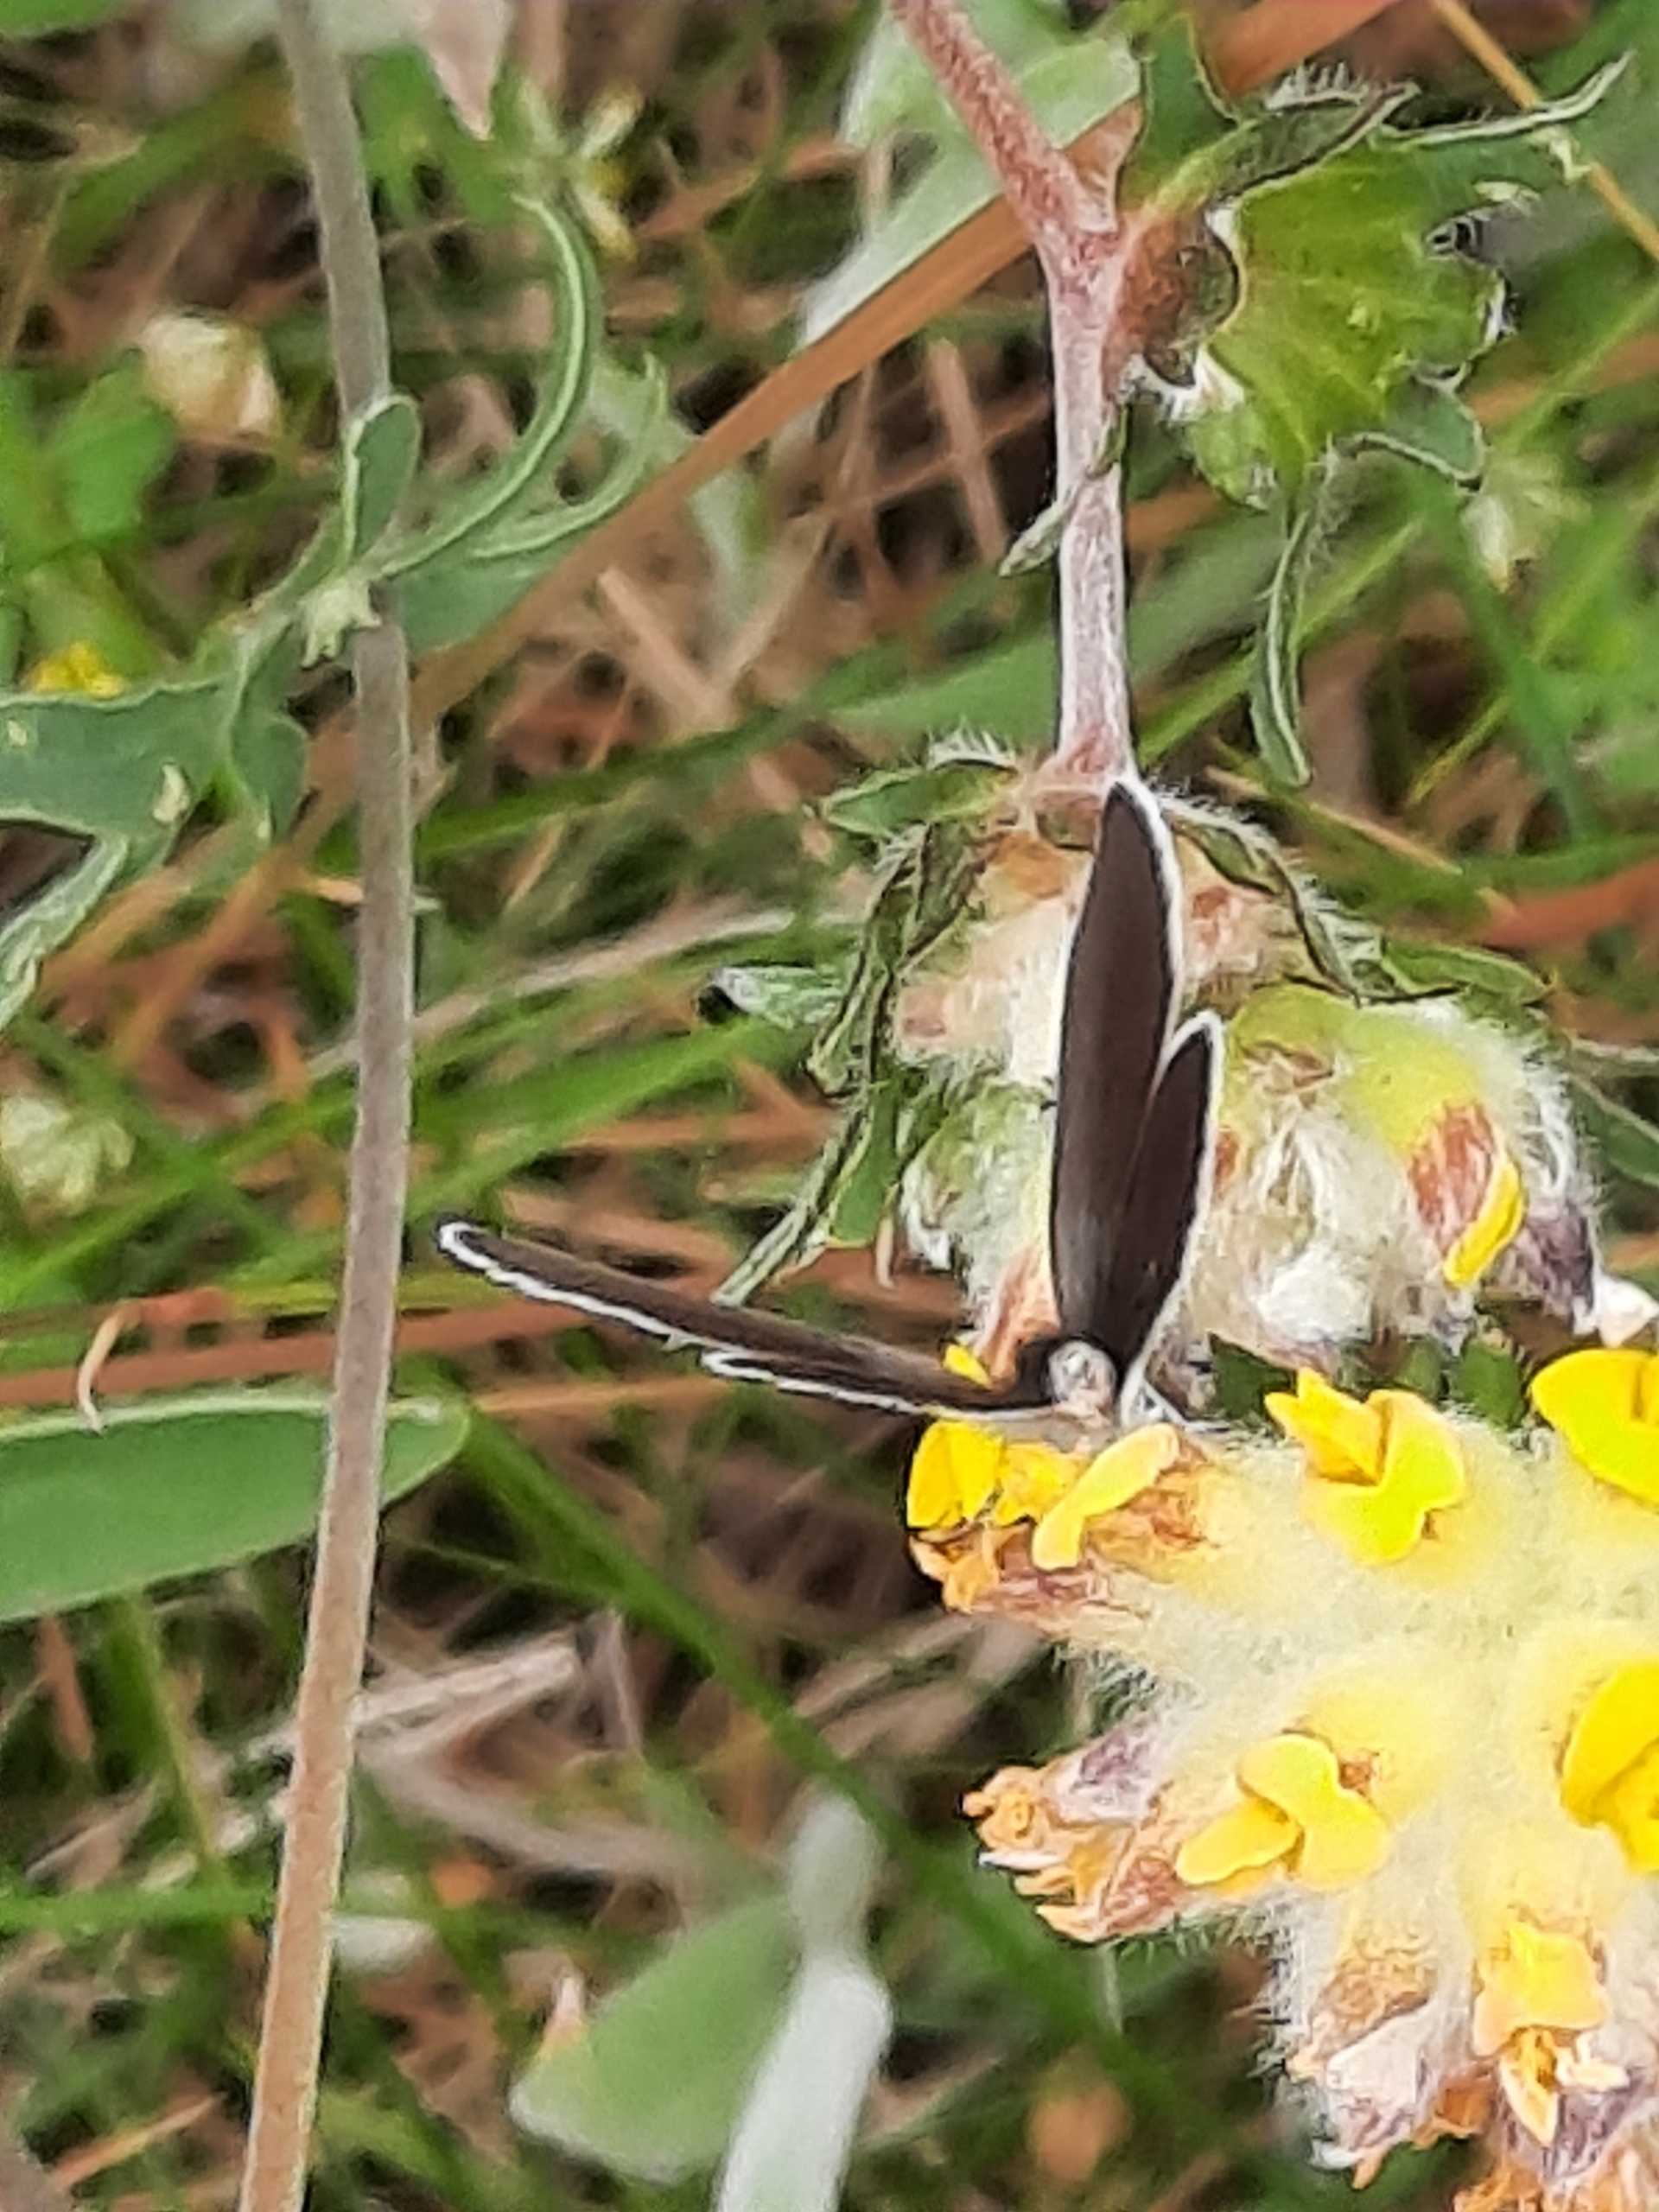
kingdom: Animalia
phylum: Arthropoda
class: Insecta
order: Lepidoptera
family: Lycaenidae
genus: Cupido
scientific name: Cupido minimus
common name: Dværgblåfugl
